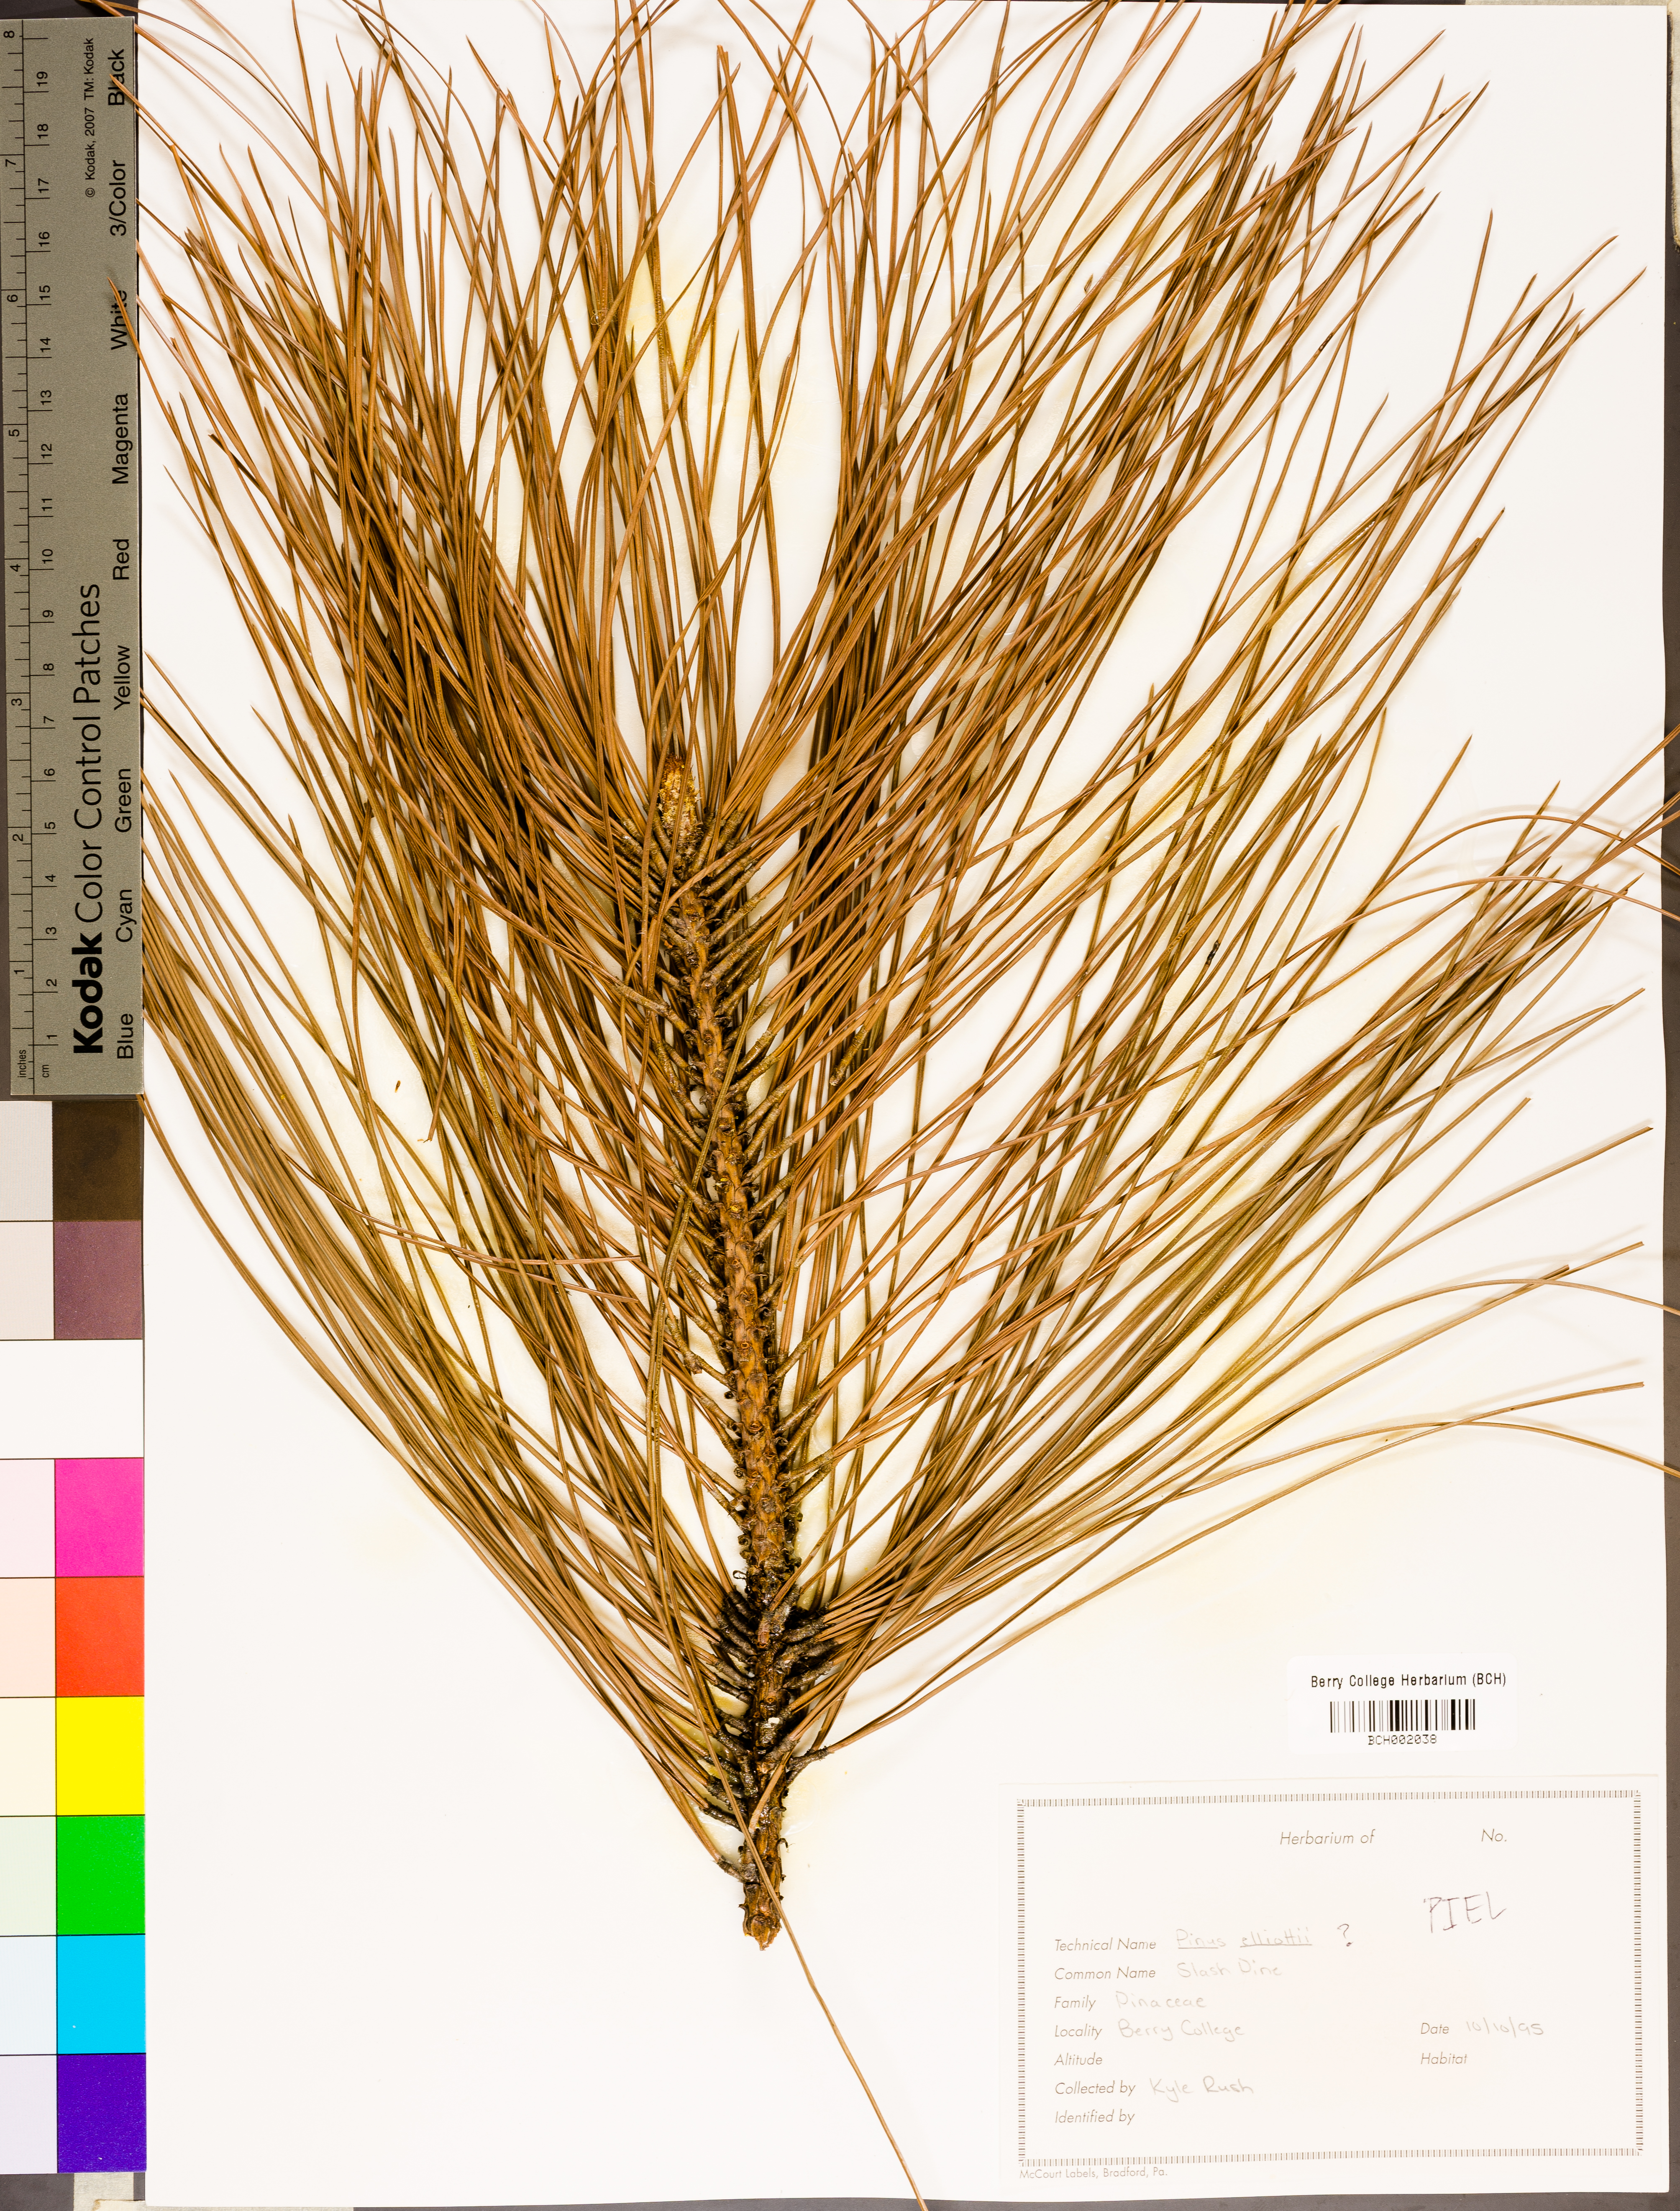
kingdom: Plantae
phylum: Tracheophyta
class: Pinopsida
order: Pinales
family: Pinaceae
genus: Pinus
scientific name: Pinus elliottii
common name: Slash pine
